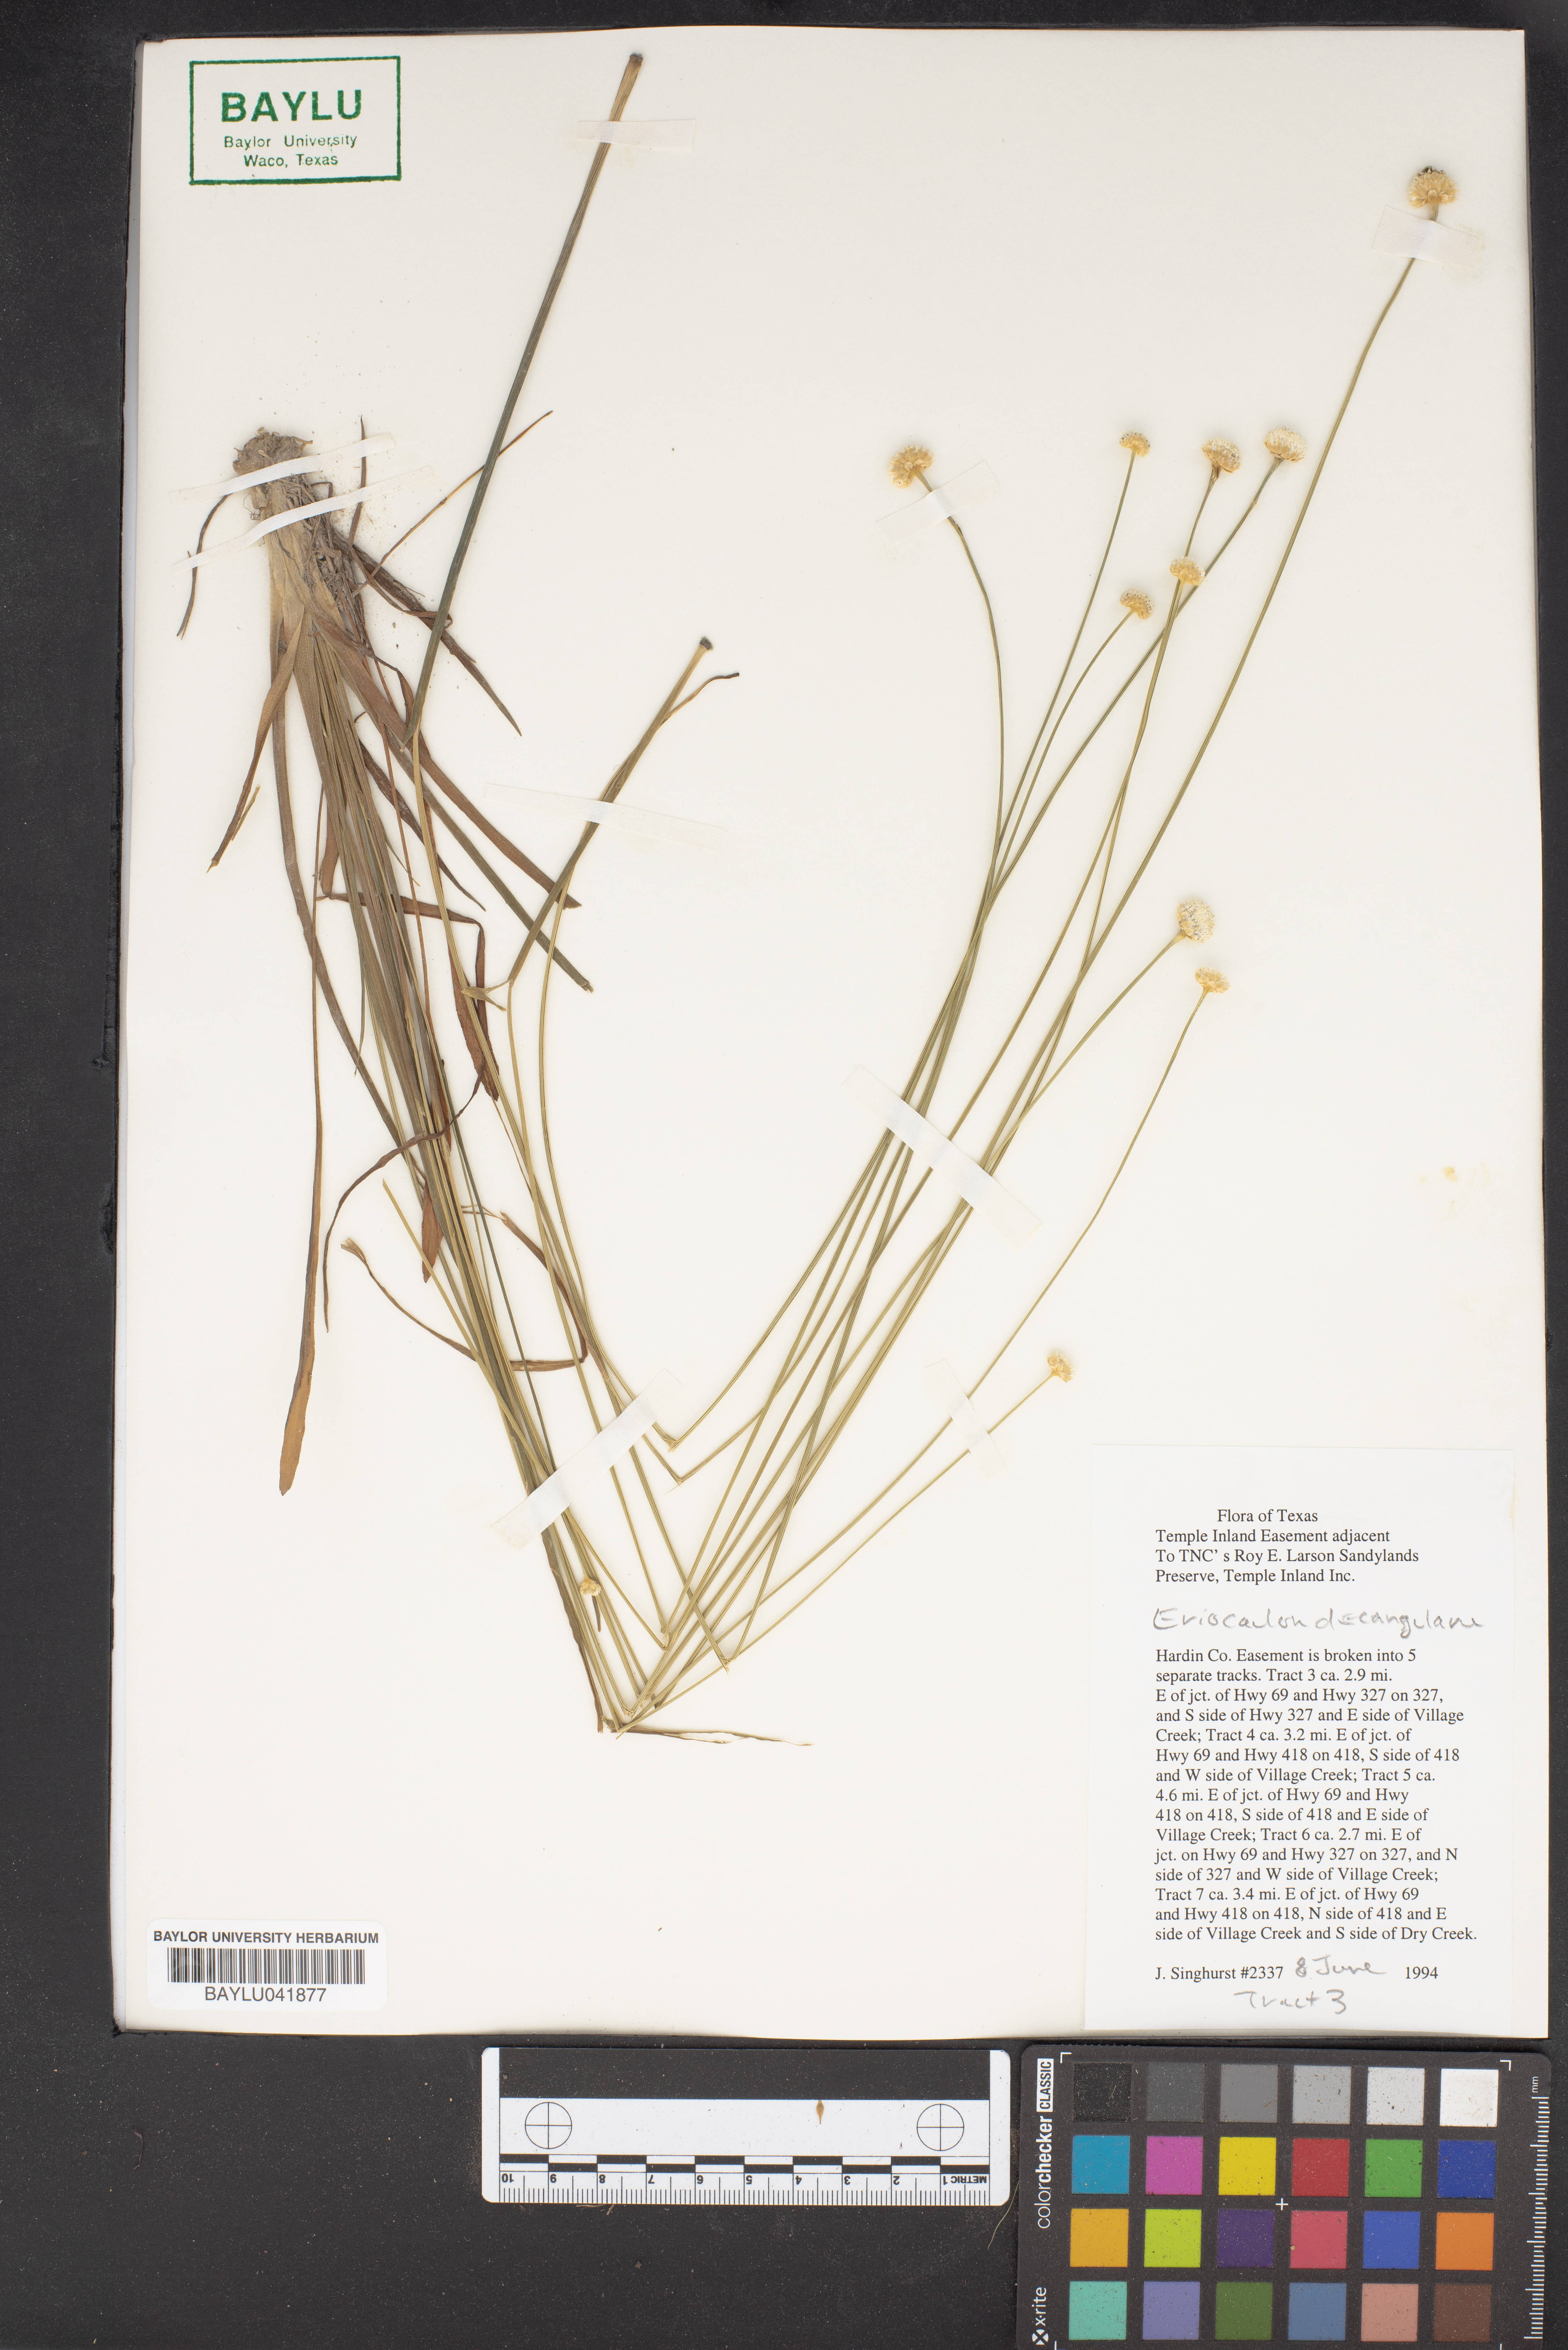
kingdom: Plantae
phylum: Tracheophyta
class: Liliopsida
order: Poales
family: Eriocaulaceae
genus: Eriocaulon
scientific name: Eriocaulon decangulare
